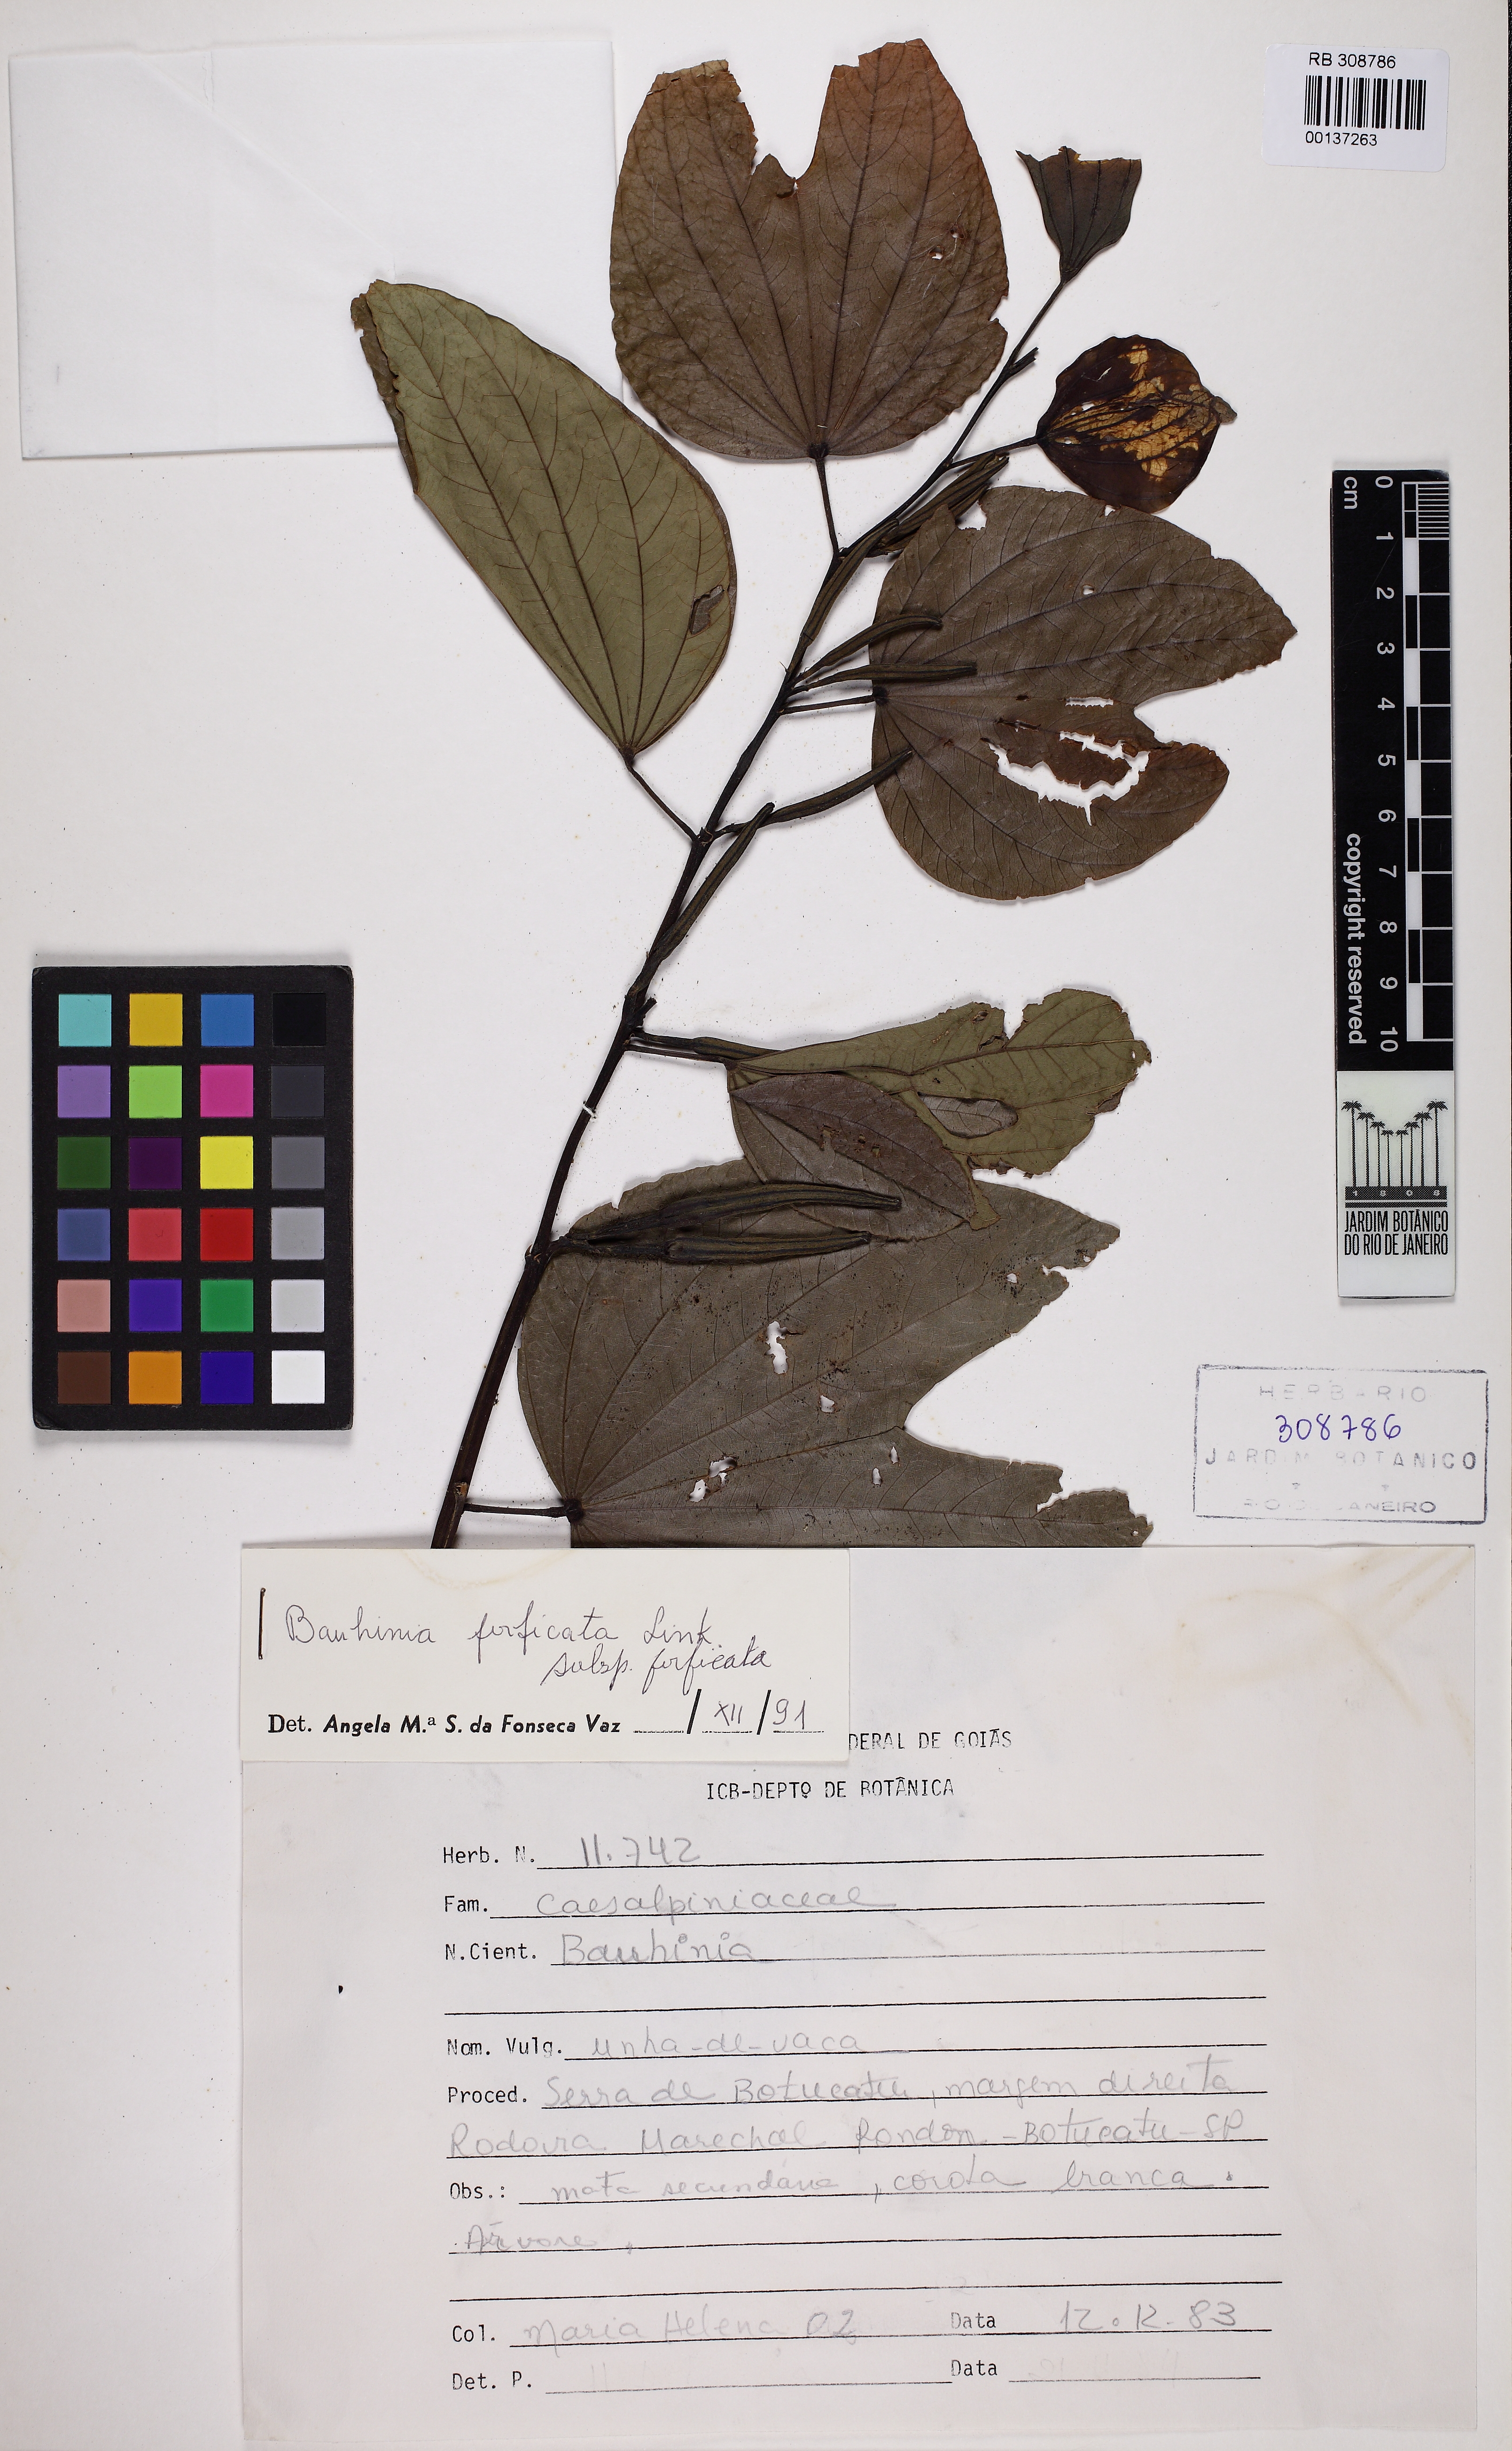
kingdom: Plantae
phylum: Tracheophyta
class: Magnoliopsida
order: Fabales
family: Fabaceae
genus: Bauhinia
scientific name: Bauhinia forficata
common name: Orchid tree
